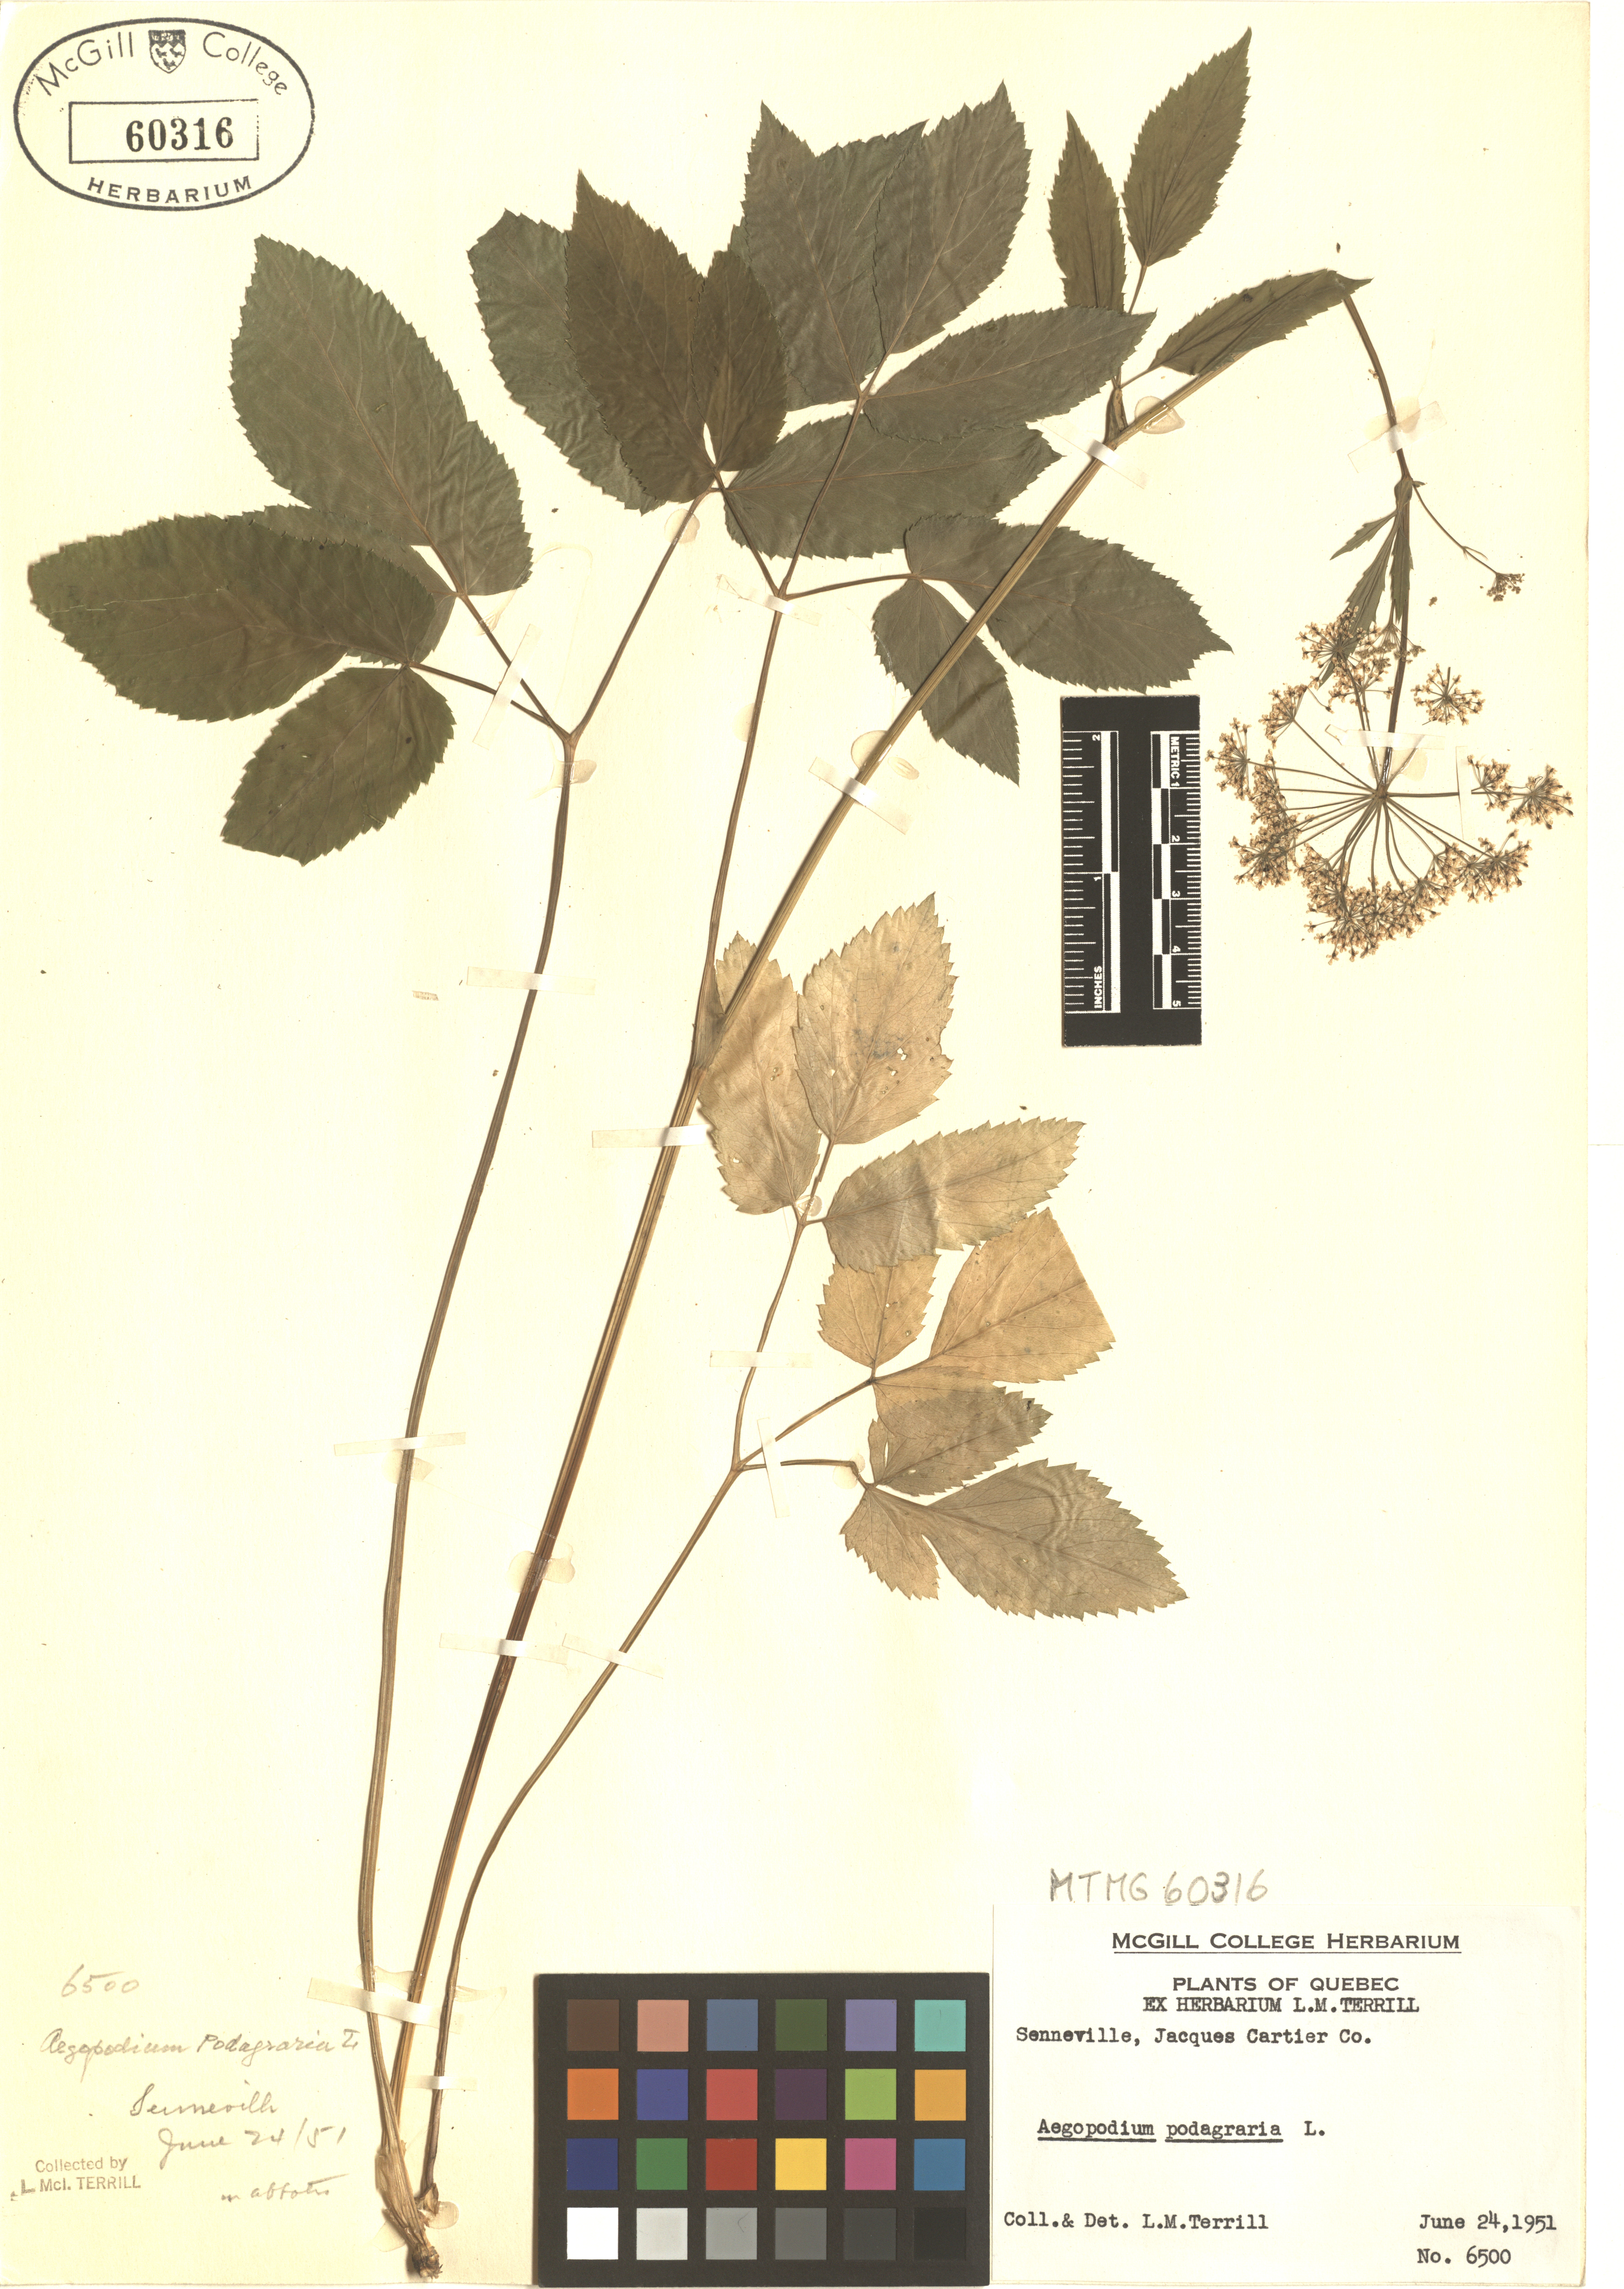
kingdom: Plantae
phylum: Tracheophyta
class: Magnoliopsida
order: Apiales
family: Apiaceae
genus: Aegopodium
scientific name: Aegopodium podagraria
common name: Ground-elder
